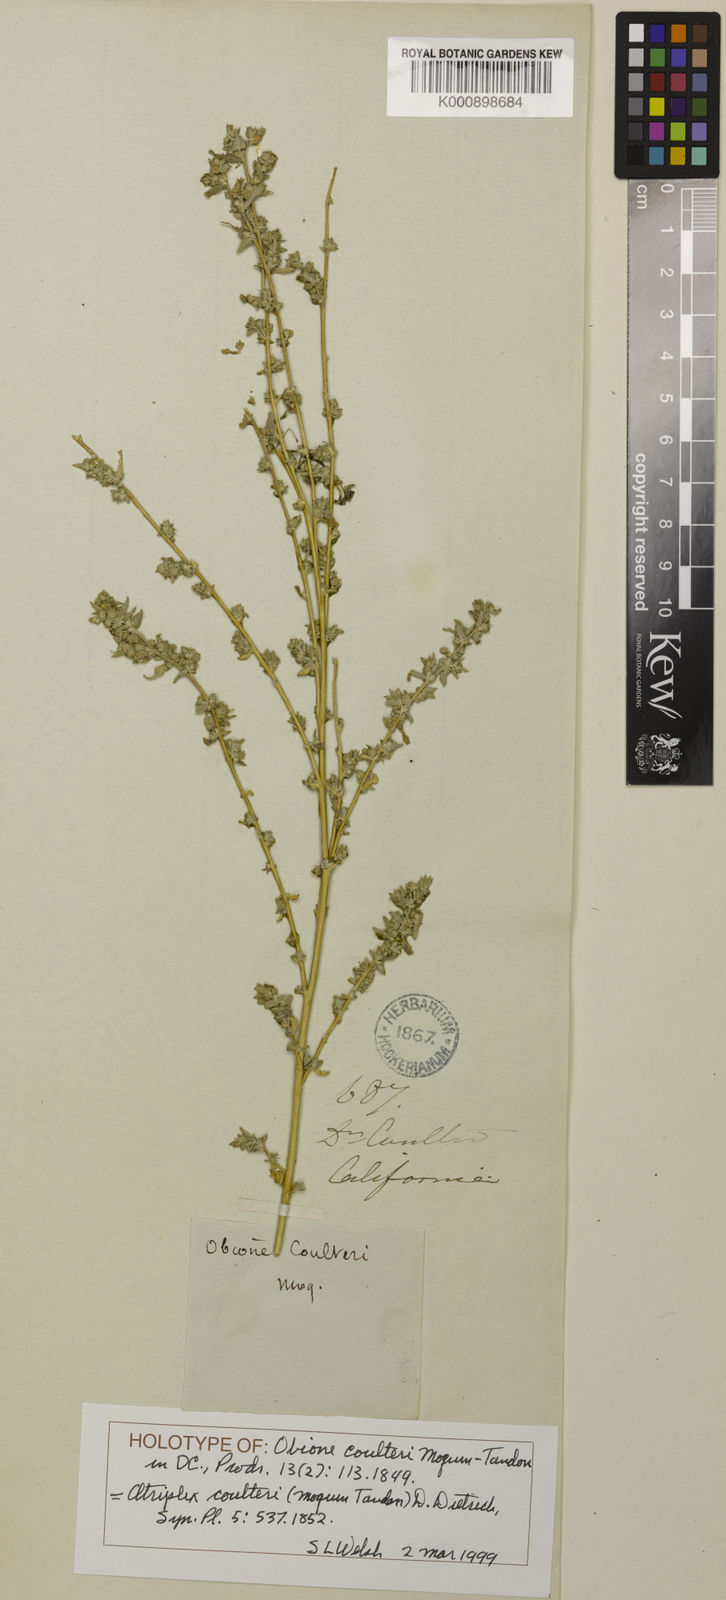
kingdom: Plantae
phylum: Tracheophyta
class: Magnoliopsida
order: Caryophyllales
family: Amaranthaceae
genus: Atriplex
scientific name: Atriplex coulteri
